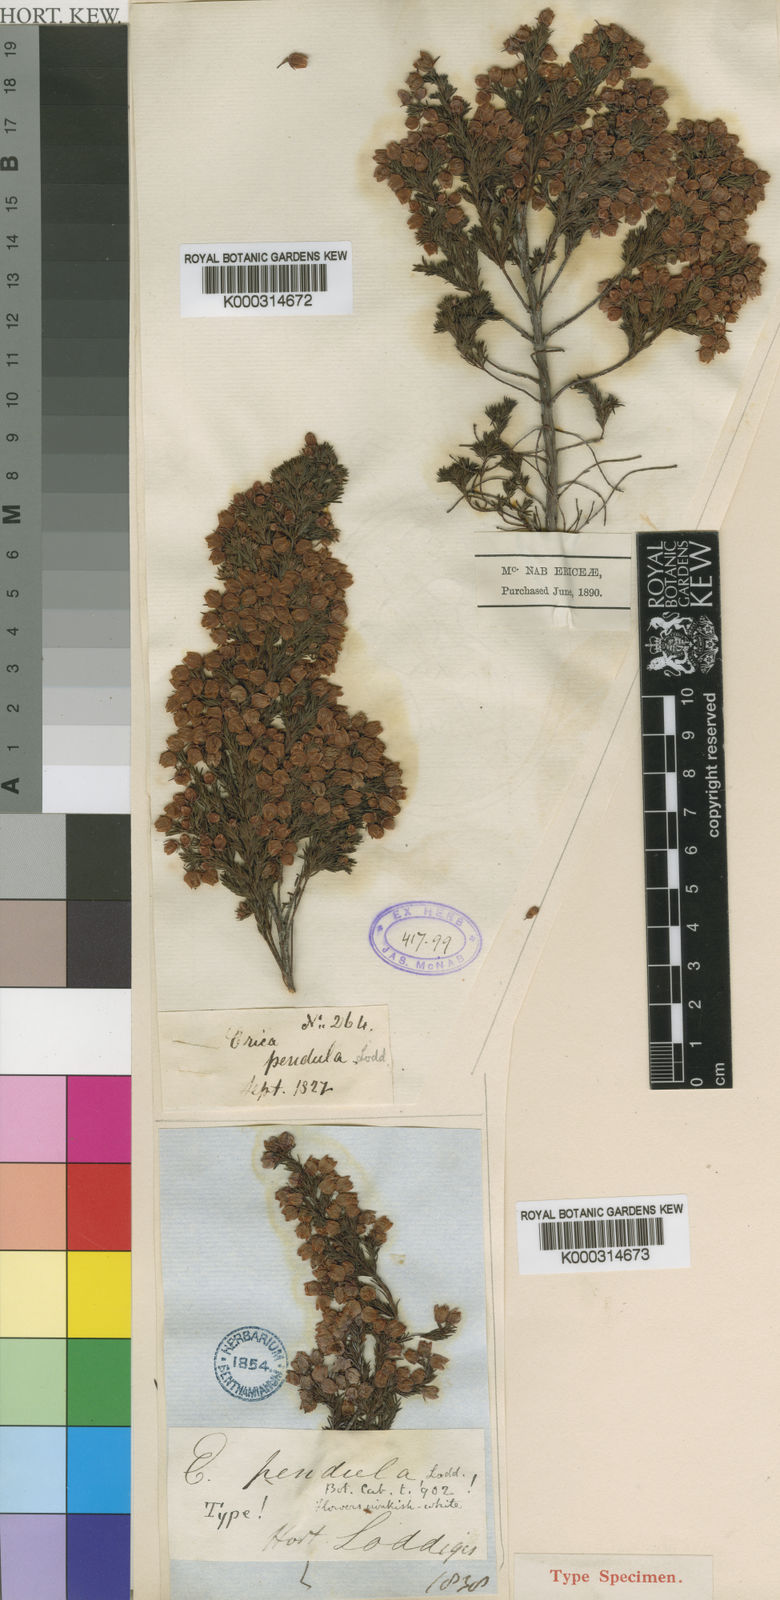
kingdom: Plantae
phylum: Tracheophyta
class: Magnoliopsida
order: Ericales
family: Ericaceae
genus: Erica
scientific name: Erica laeta
